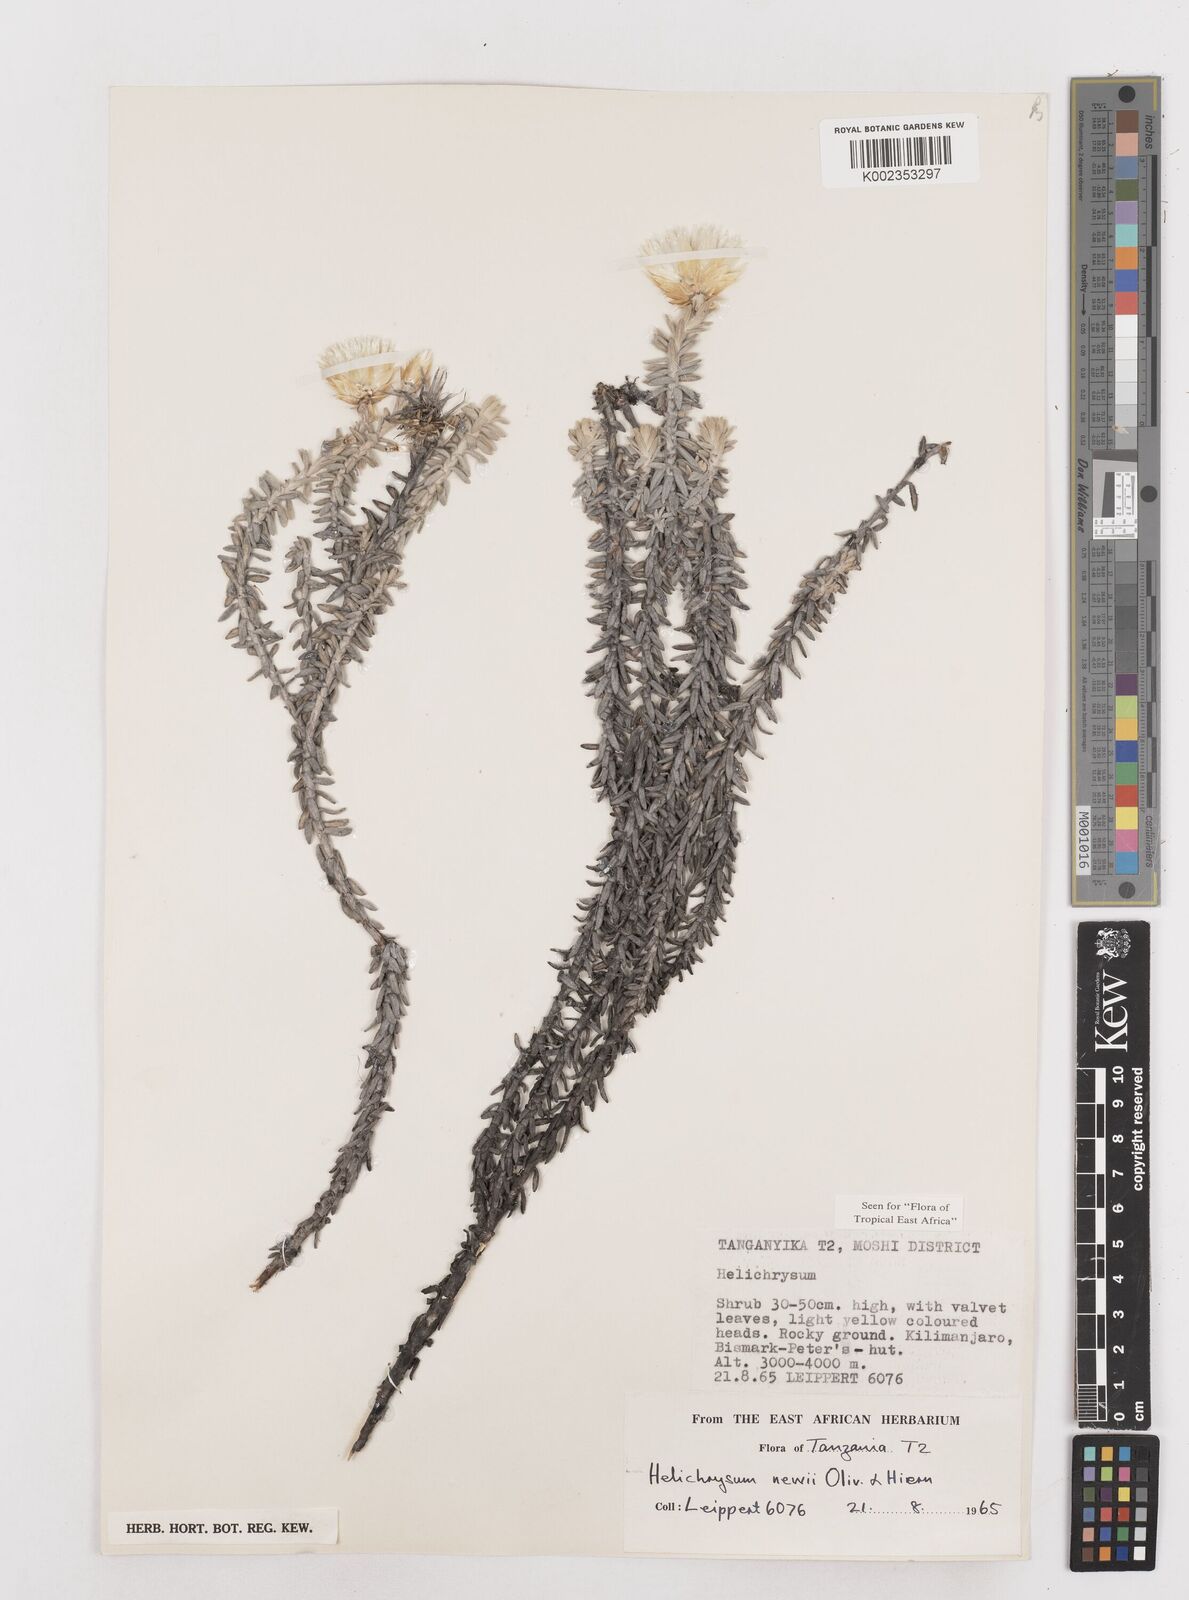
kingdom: Plantae
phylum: Tracheophyta
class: Magnoliopsida
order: Asterales
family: Asteraceae
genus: Helichrysum
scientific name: Helichrysum newii
